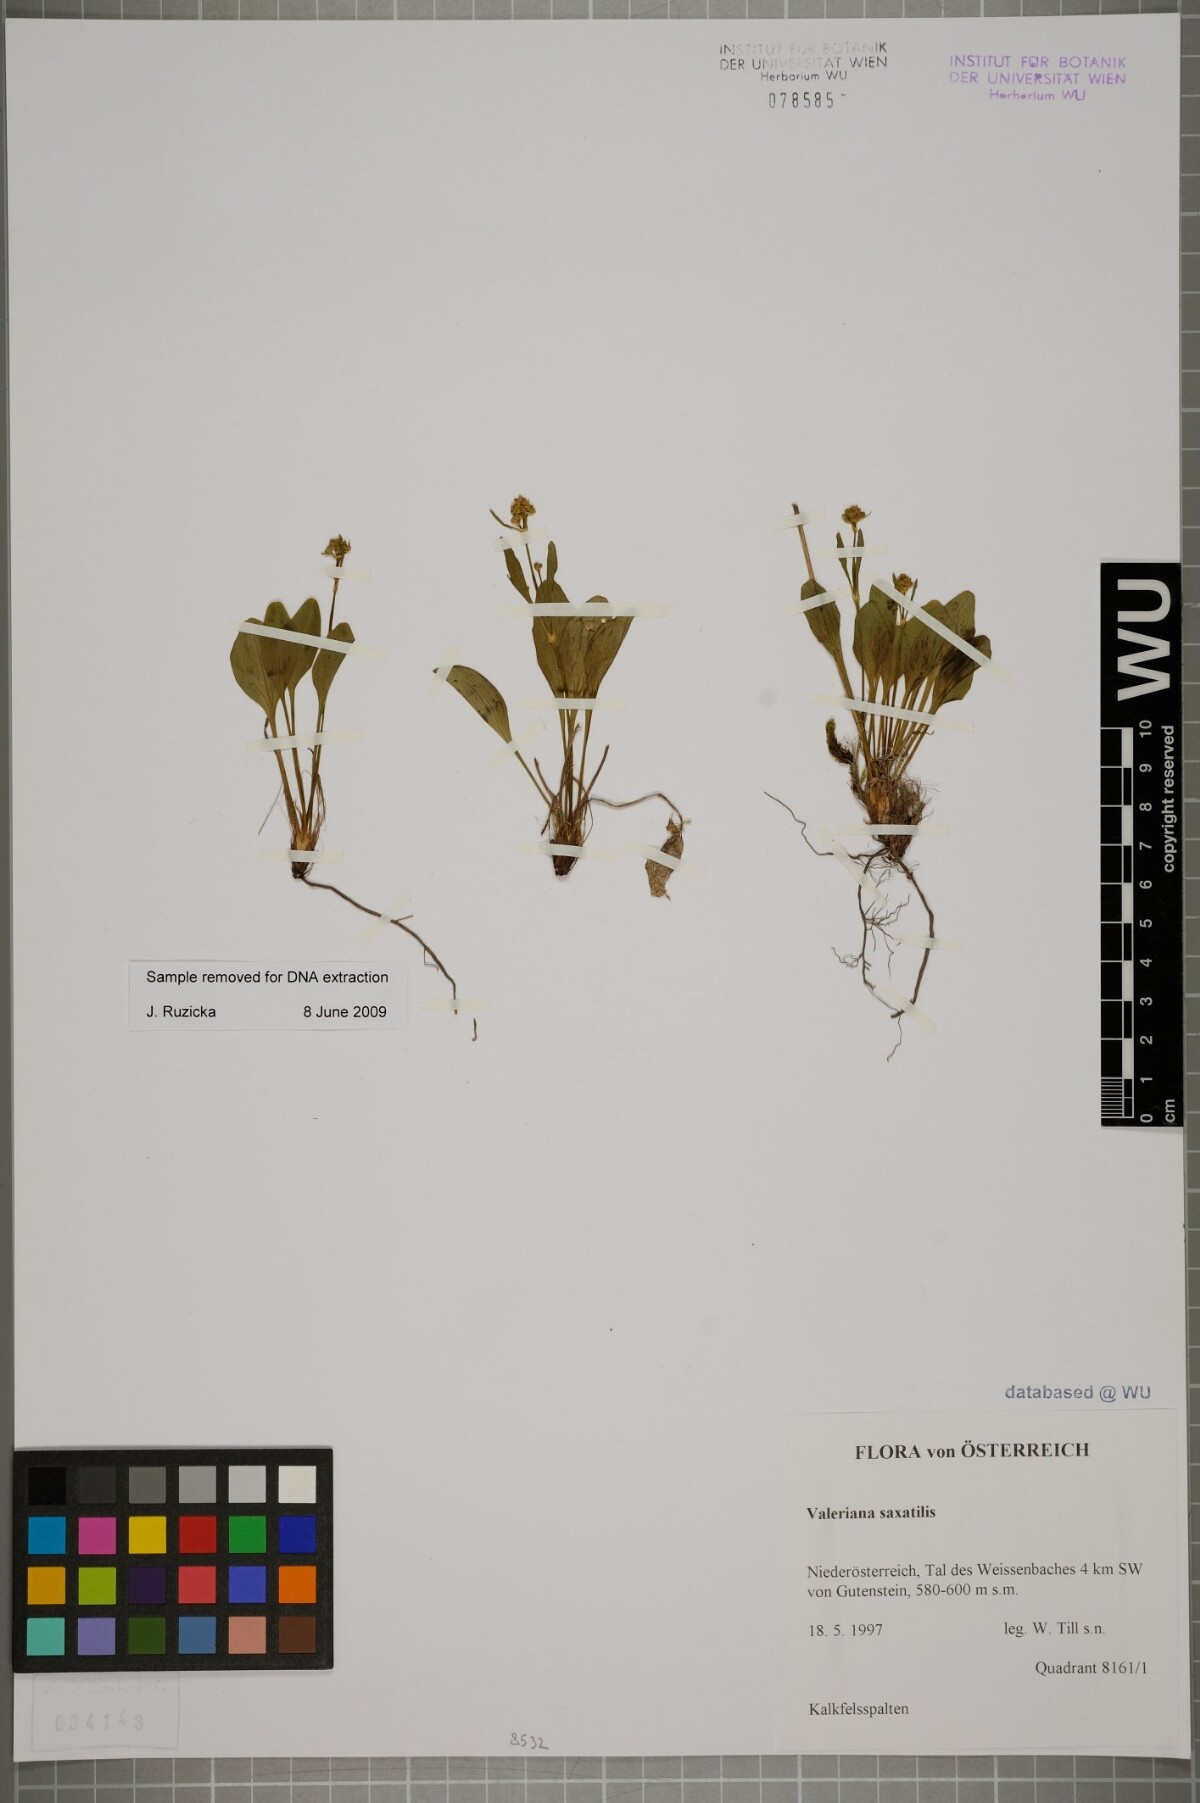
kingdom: Plantae
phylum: Tracheophyta
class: Magnoliopsida
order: Dipsacales
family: Caprifoliaceae
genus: Valeriana
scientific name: Valeriana saxatilis
